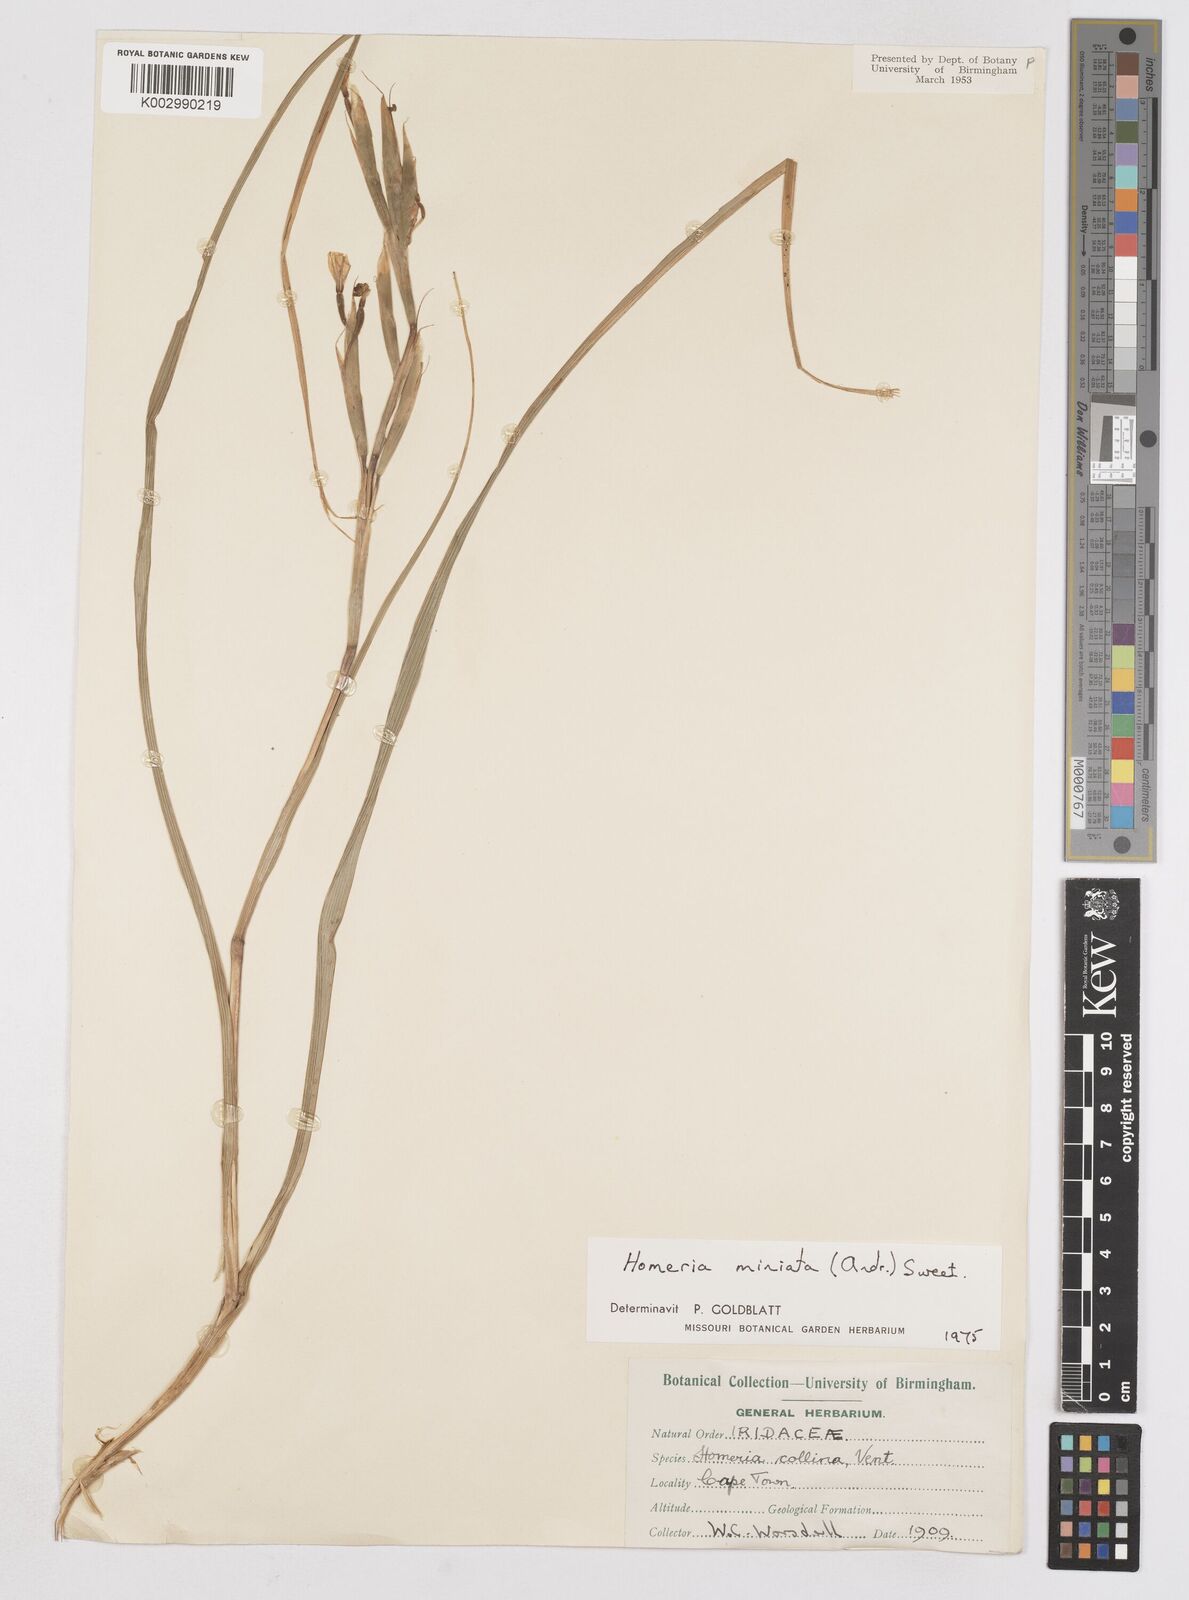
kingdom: Plantae
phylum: Tracheophyta
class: Liliopsida
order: Asparagales
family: Iridaceae
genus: Moraea
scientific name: Moraea miniata
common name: Two-leaf cape-tulip
